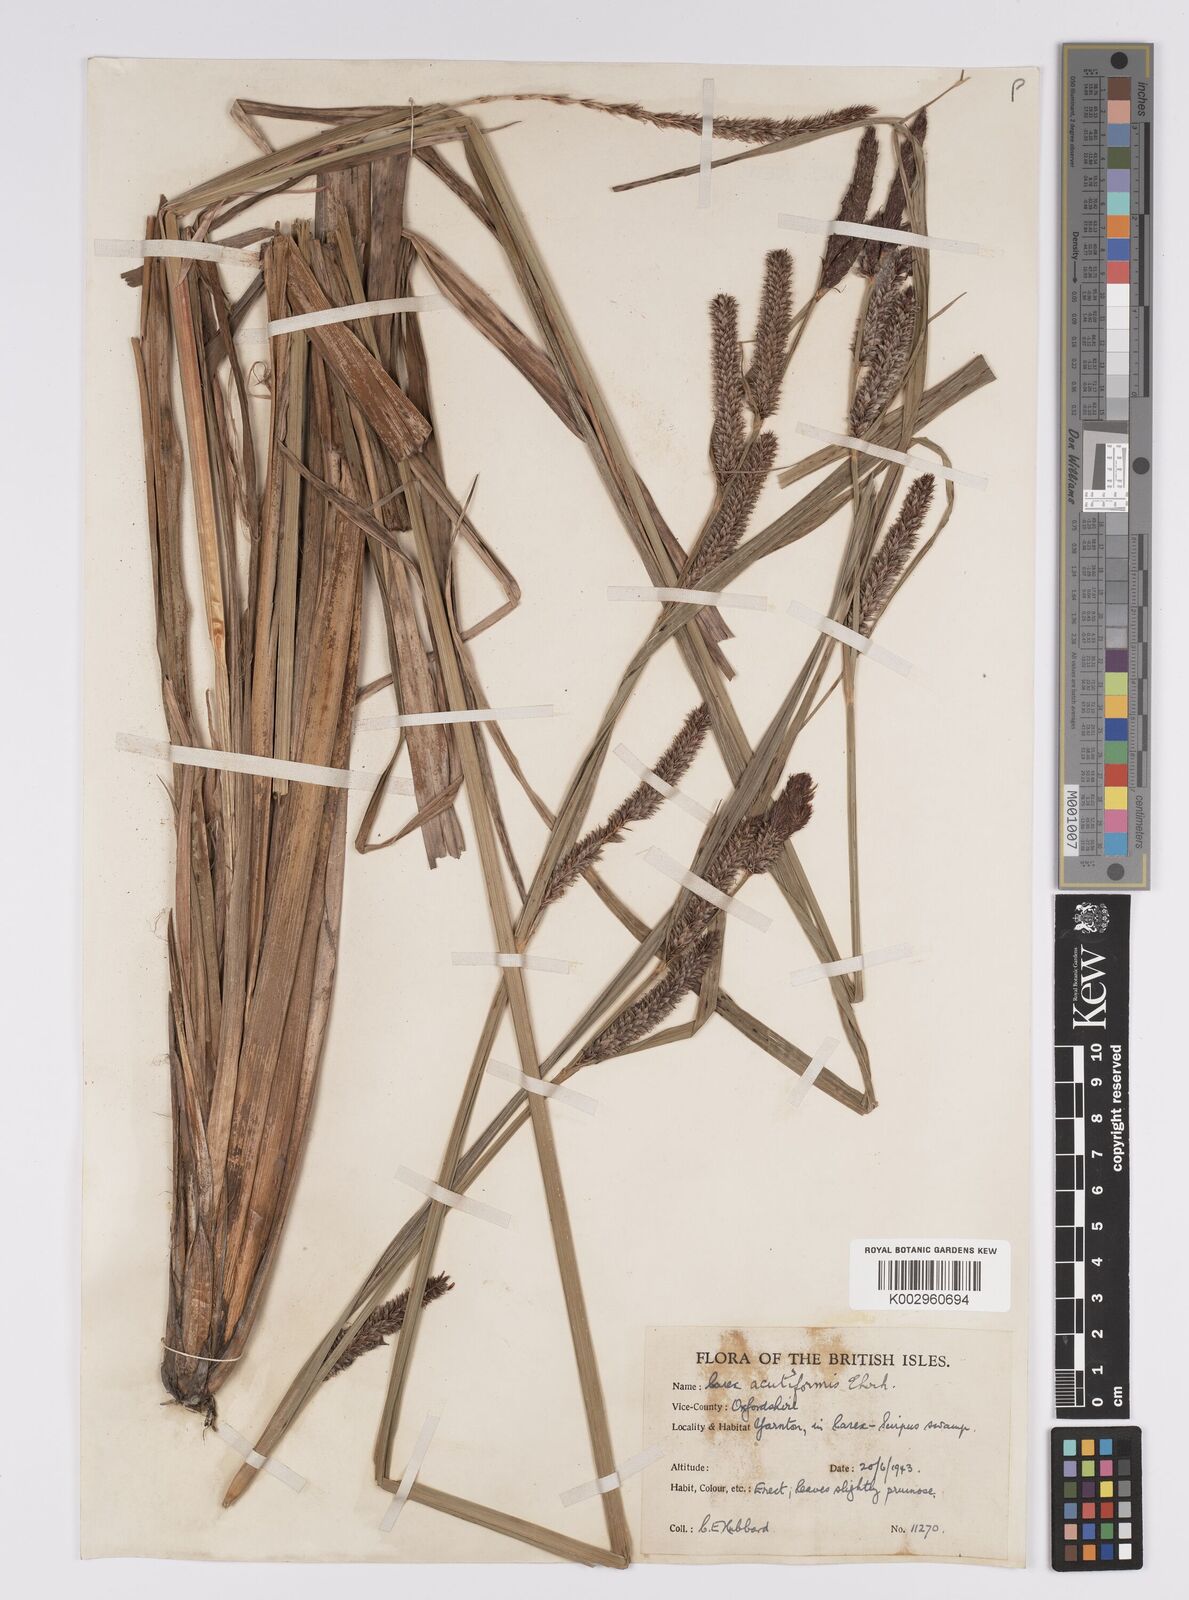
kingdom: Plantae
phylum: Tracheophyta
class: Liliopsida
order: Poales
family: Cyperaceae
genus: Carex
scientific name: Carex acutiformis
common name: Lesser pond-sedge
